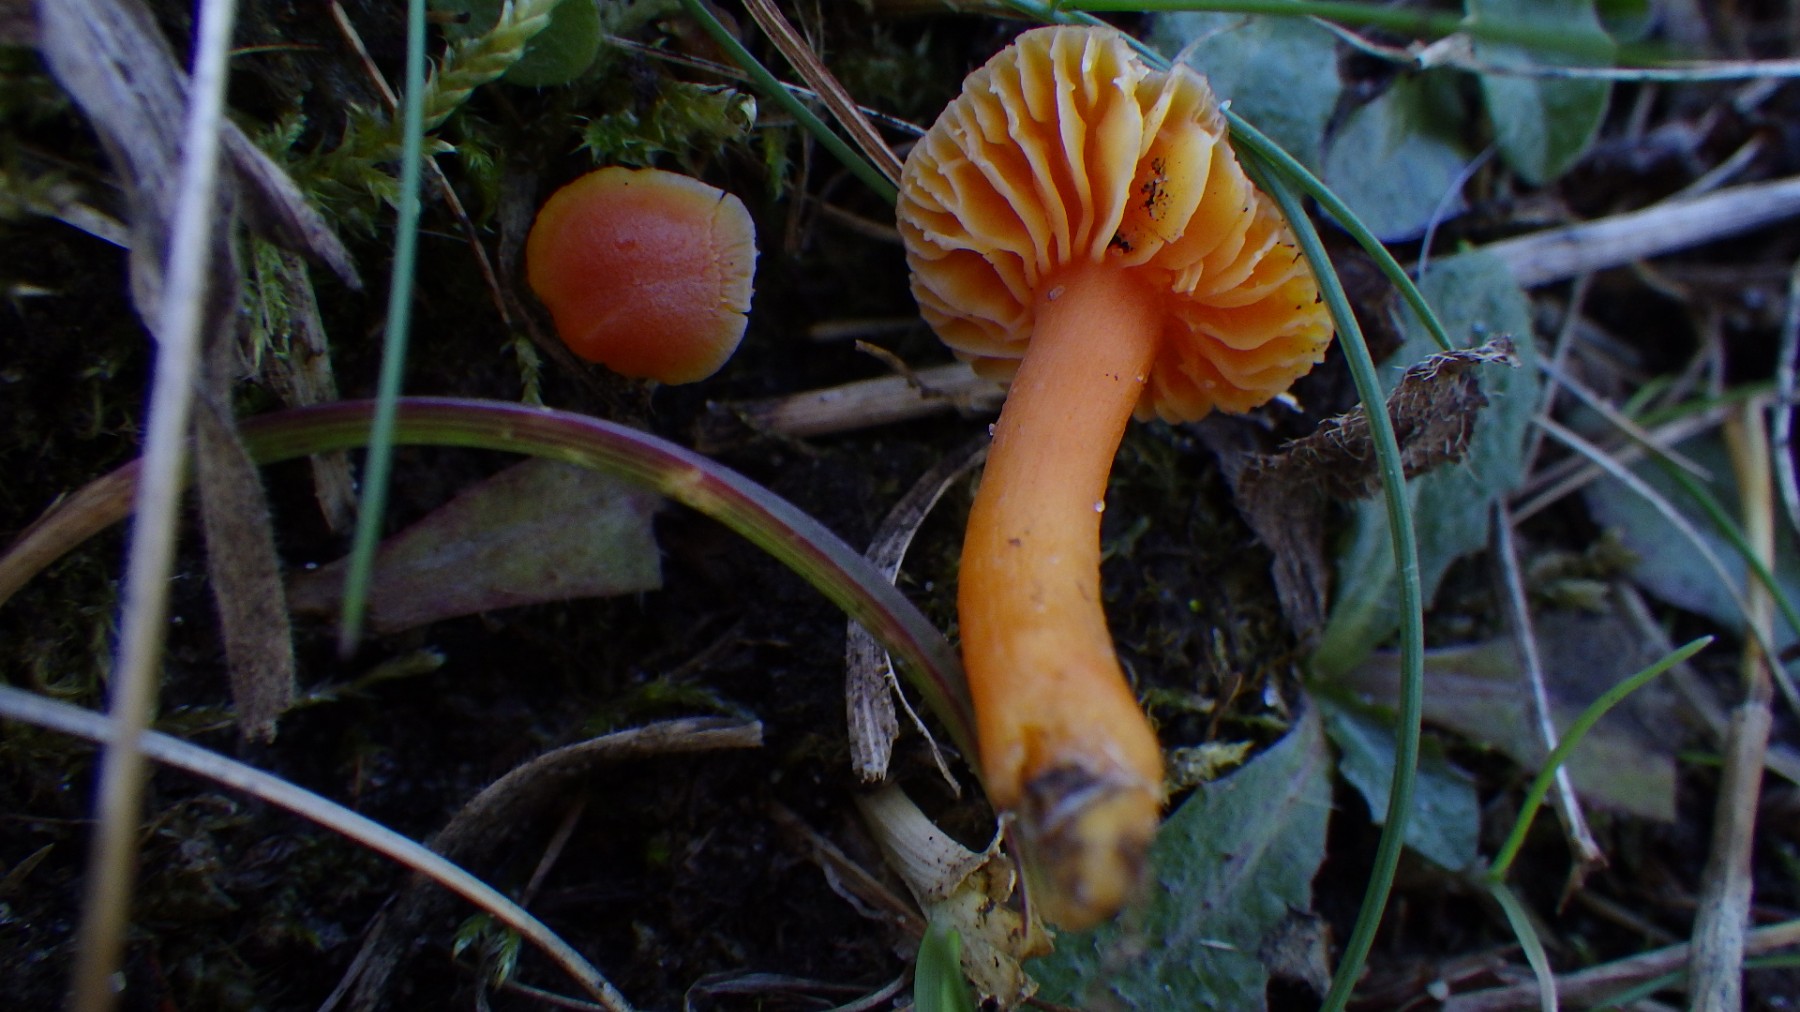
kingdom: Fungi
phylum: Basidiomycota
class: Agaricomycetes
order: Agaricales
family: Hygrophoraceae
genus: Hygrocybe
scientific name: Hygrocybe miniata
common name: mønje-vokshat
